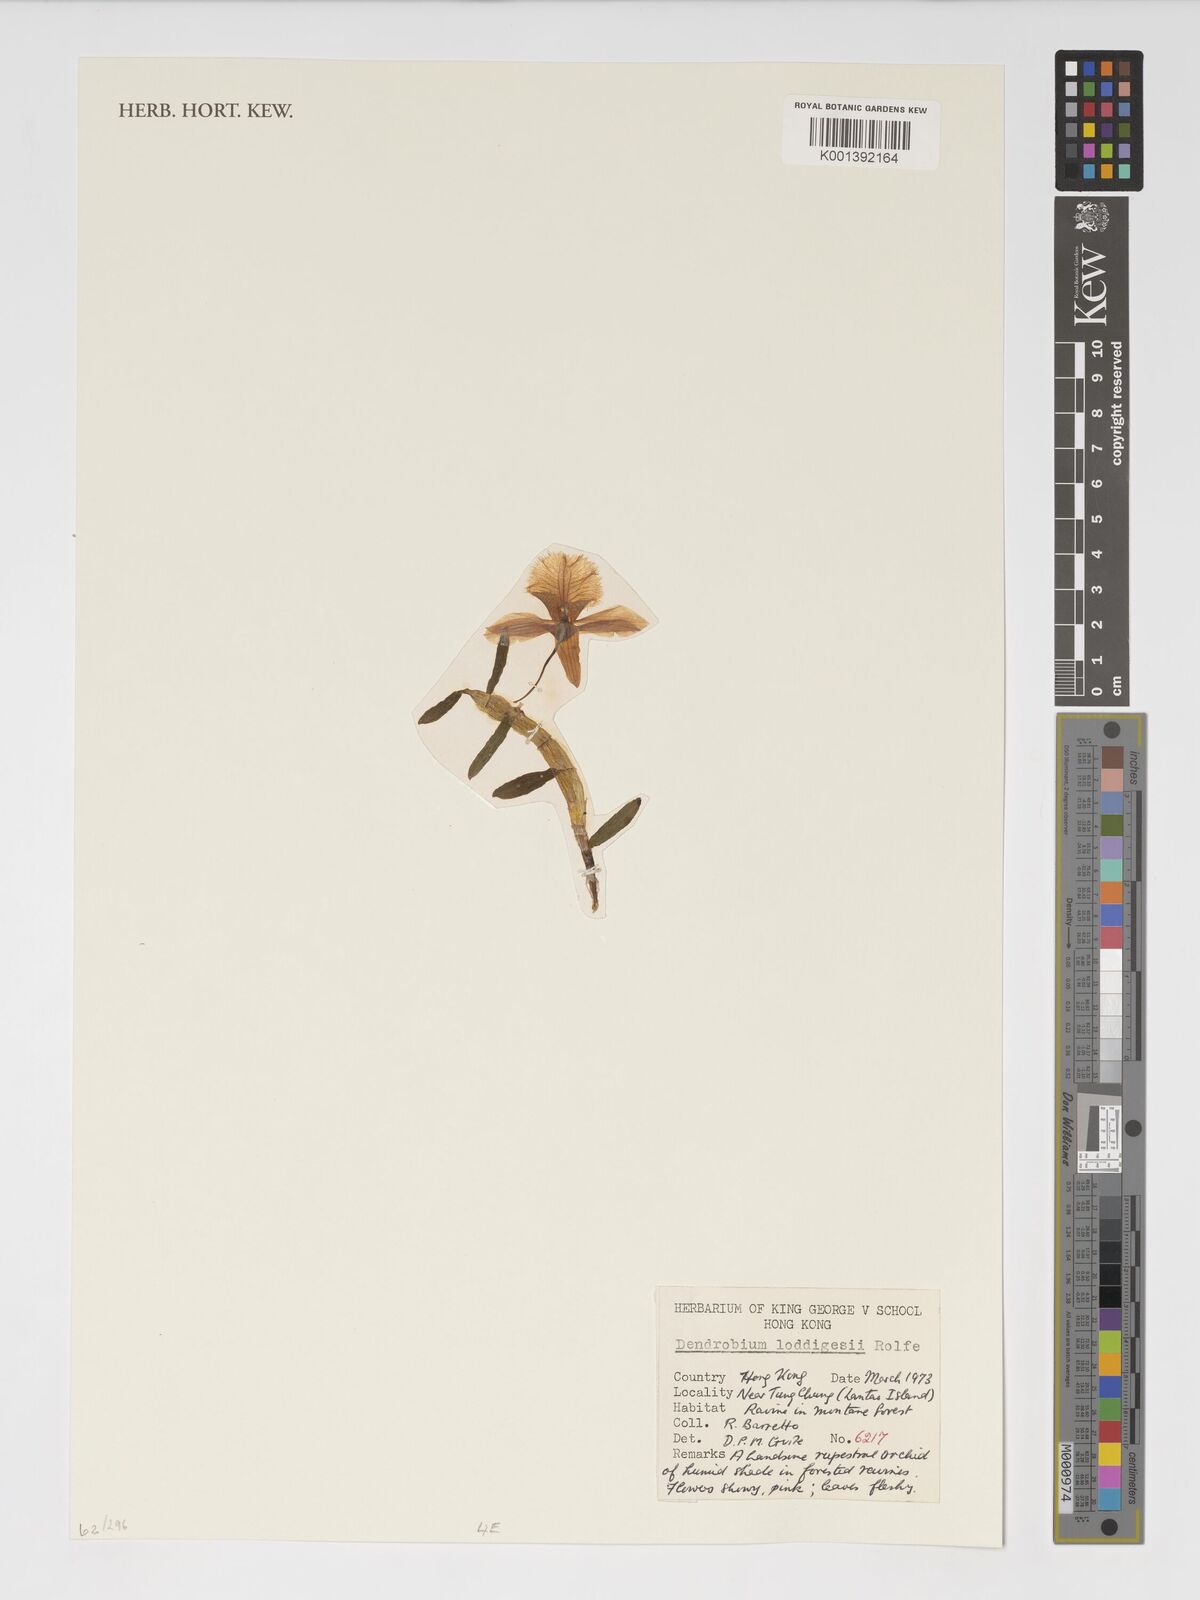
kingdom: Plantae
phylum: Tracheophyta
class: Liliopsida
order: Asparagales
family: Orchidaceae
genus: Dendrobium
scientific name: Dendrobium loddigesii
